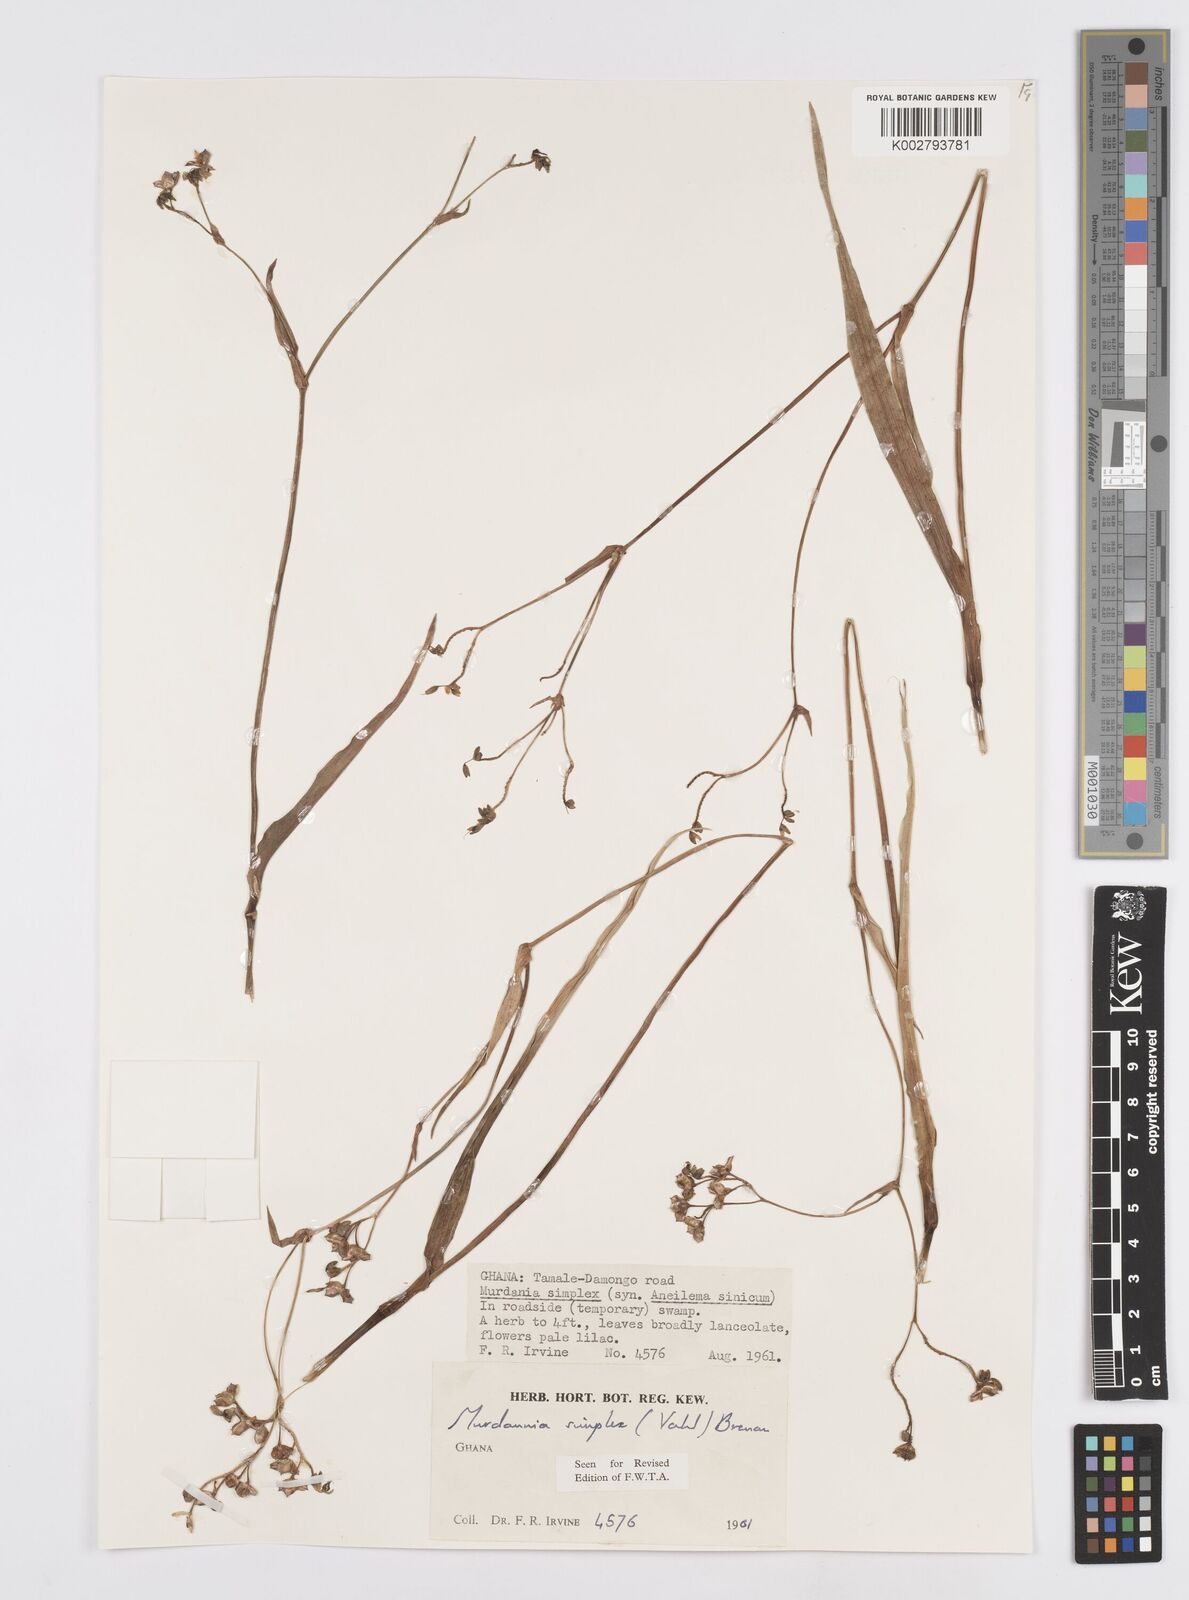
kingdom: Plantae
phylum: Tracheophyta
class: Liliopsida
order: Commelinales
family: Commelinaceae
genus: Murdannia
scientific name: Murdannia simplex
